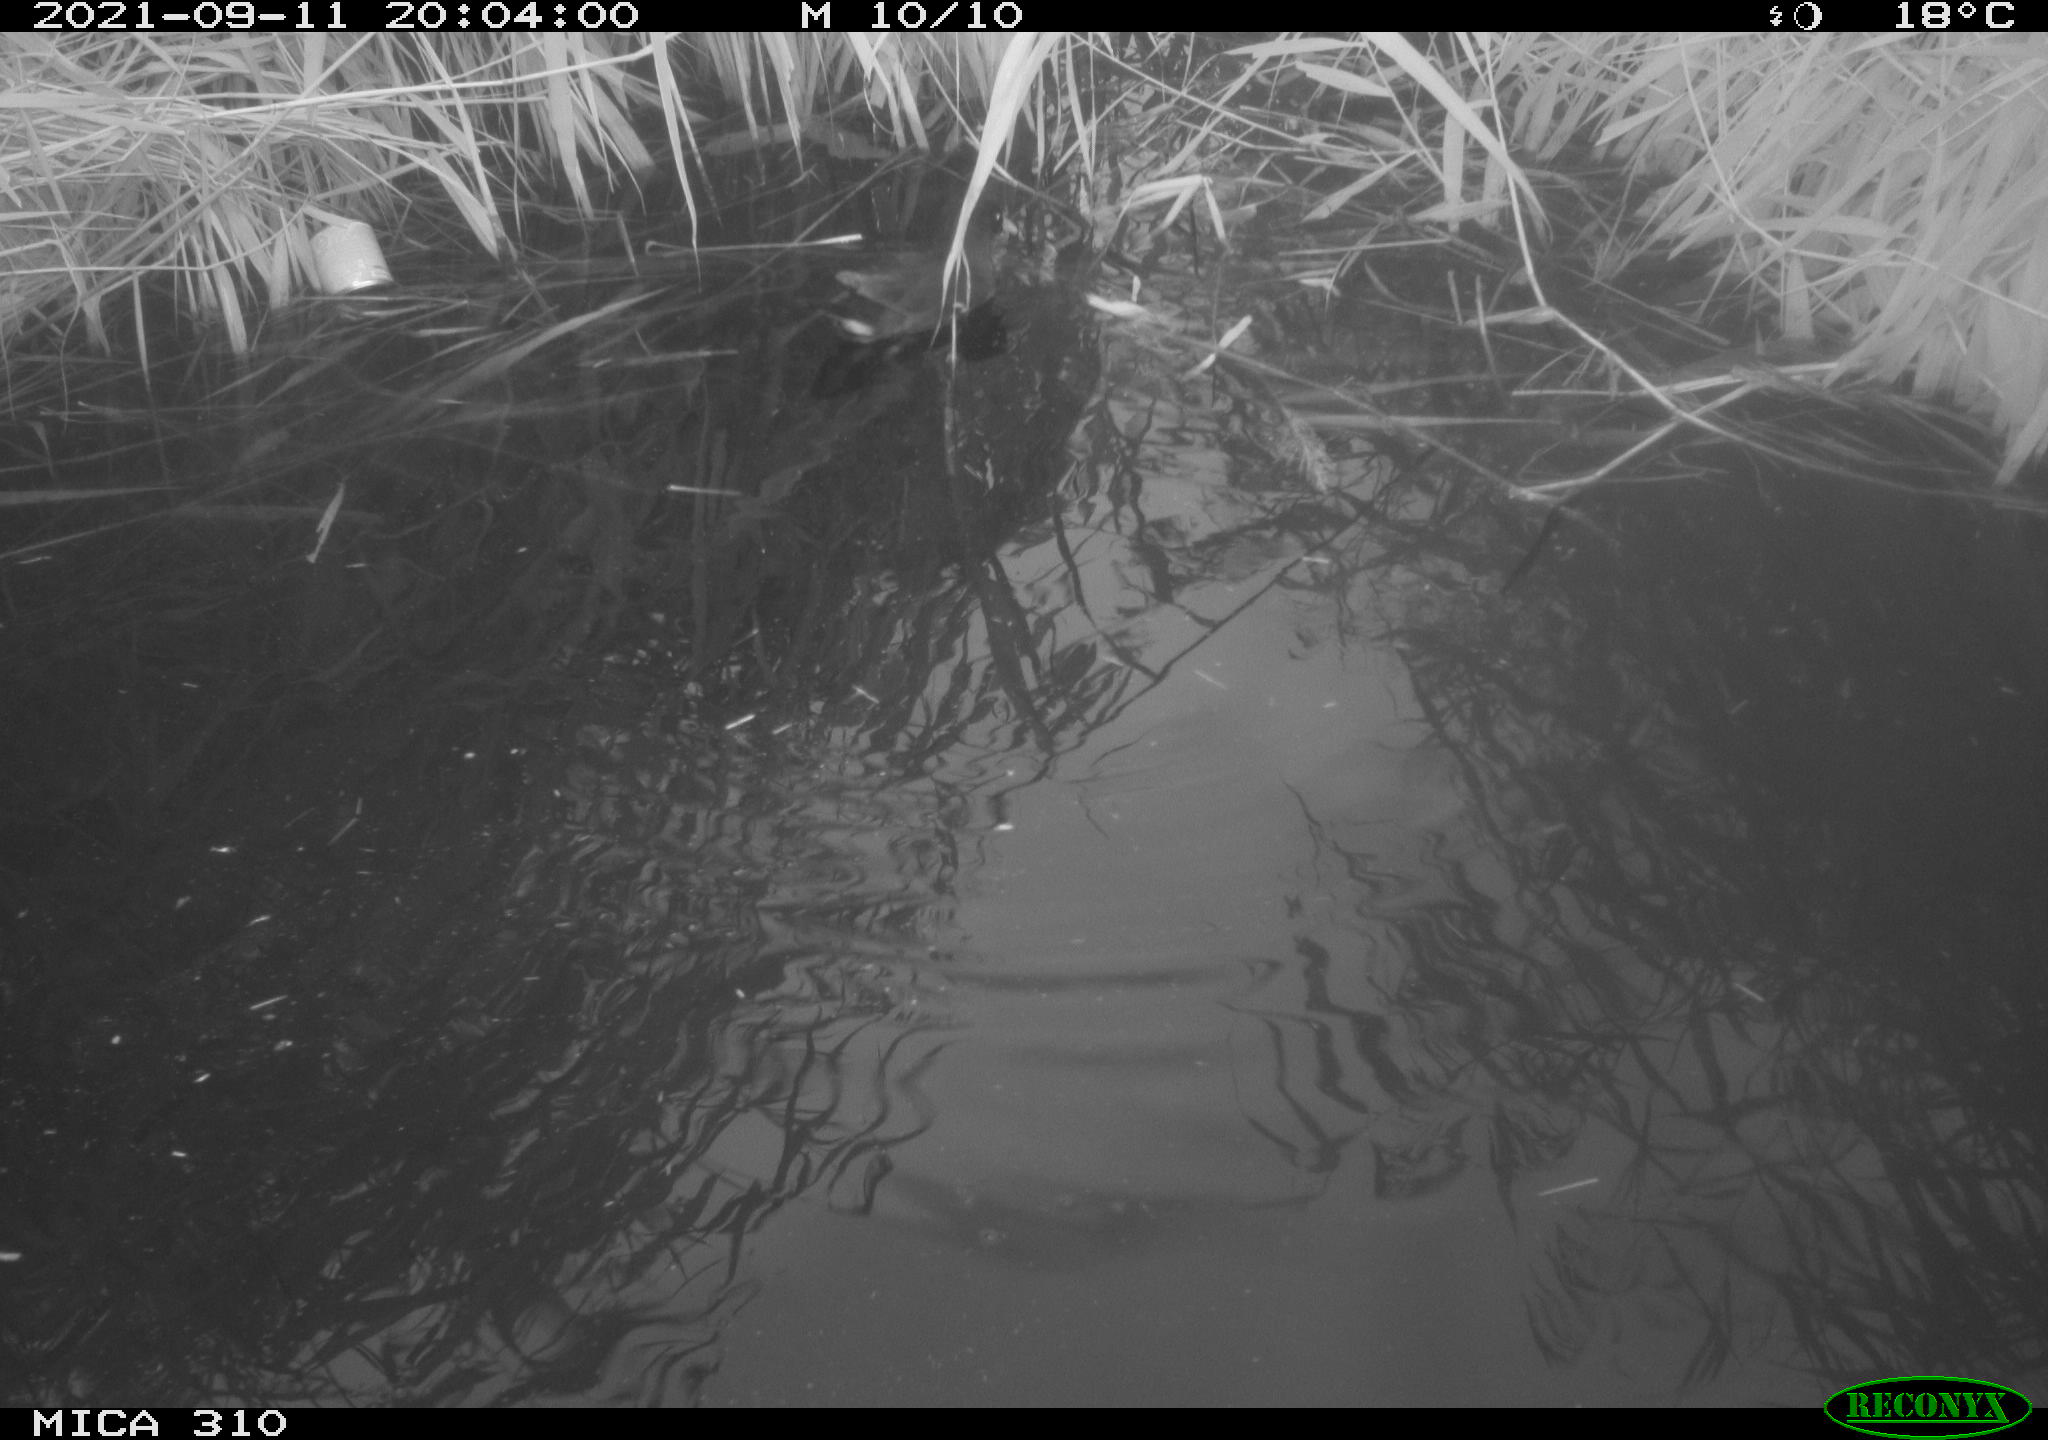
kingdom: Animalia
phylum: Chordata
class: Aves
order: Gruiformes
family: Rallidae
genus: Gallinula
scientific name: Gallinula chloropus
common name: Common moorhen
